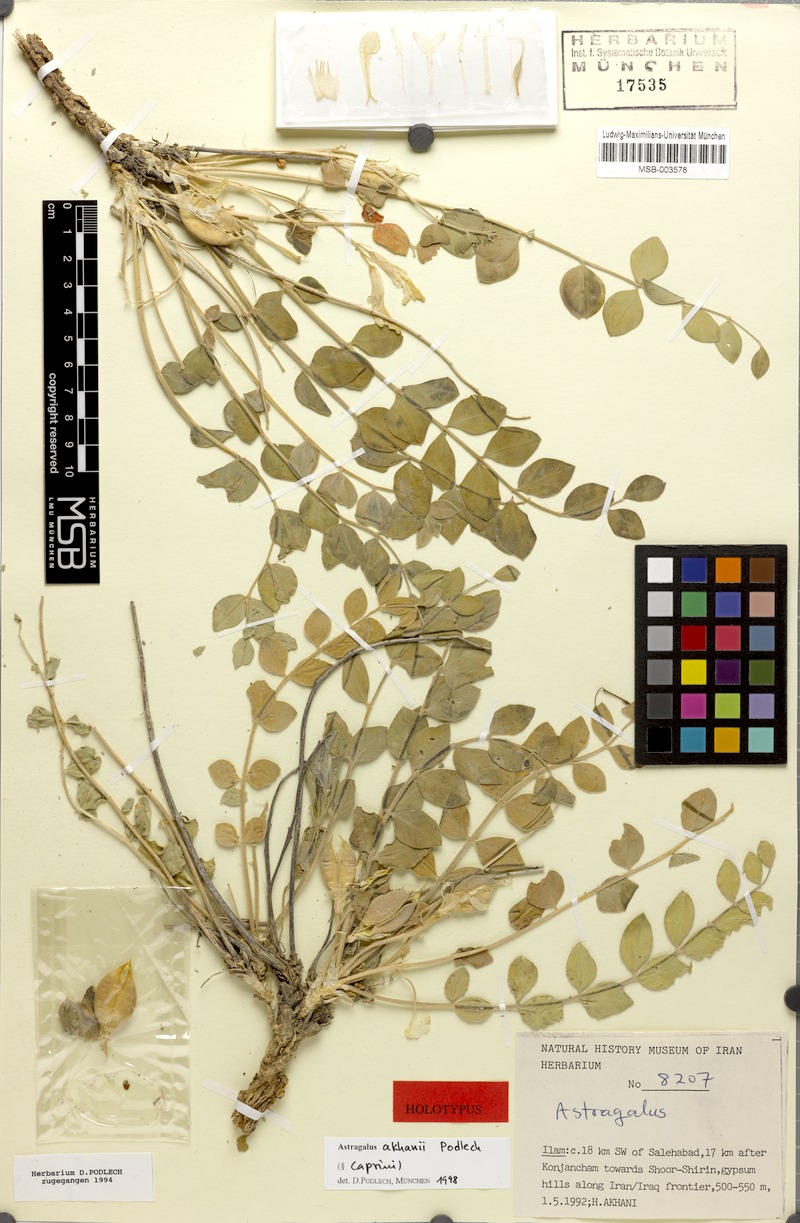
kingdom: Plantae
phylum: Tracheophyta
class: Magnoliopsida
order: Fabales
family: Fabaceae
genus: Astragalus
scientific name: Astragalus akhanii
